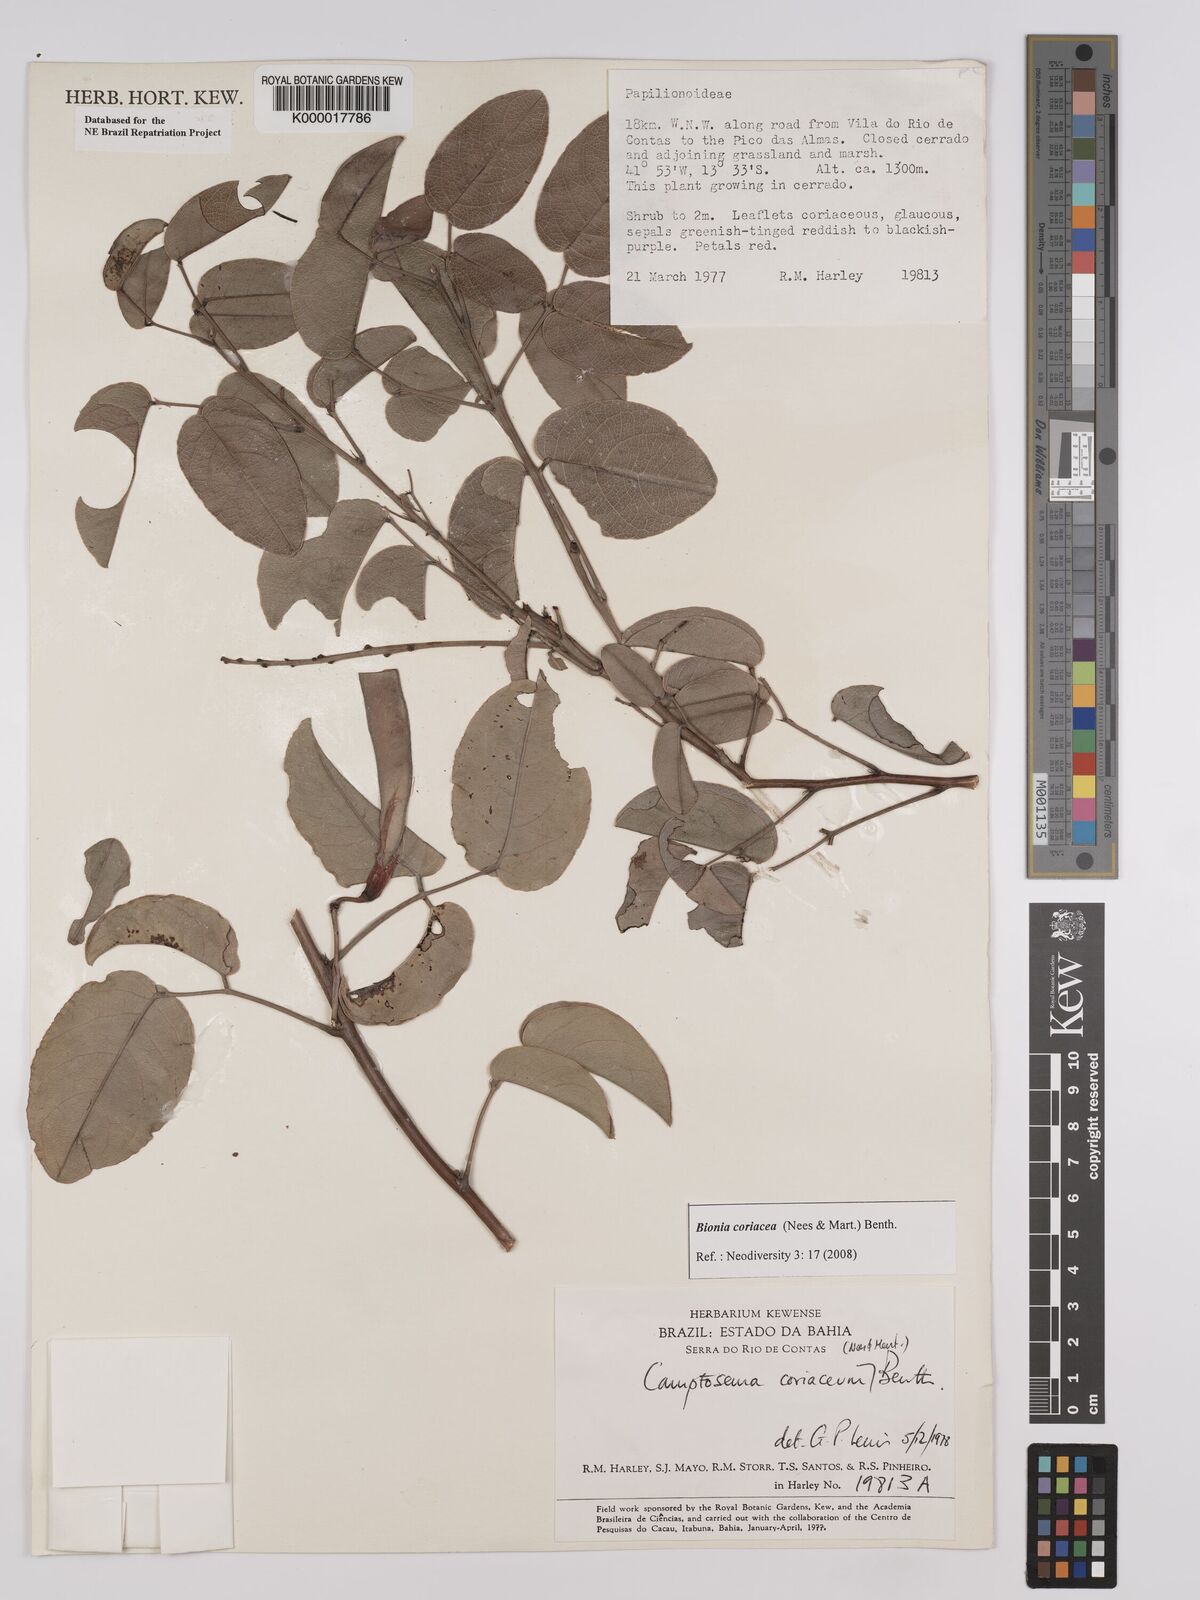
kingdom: Plantae
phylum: Tracheophyta
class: Magnoliopsida
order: Fabales
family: Fabaceae
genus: Camptosema
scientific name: Camptosema coriaceum
